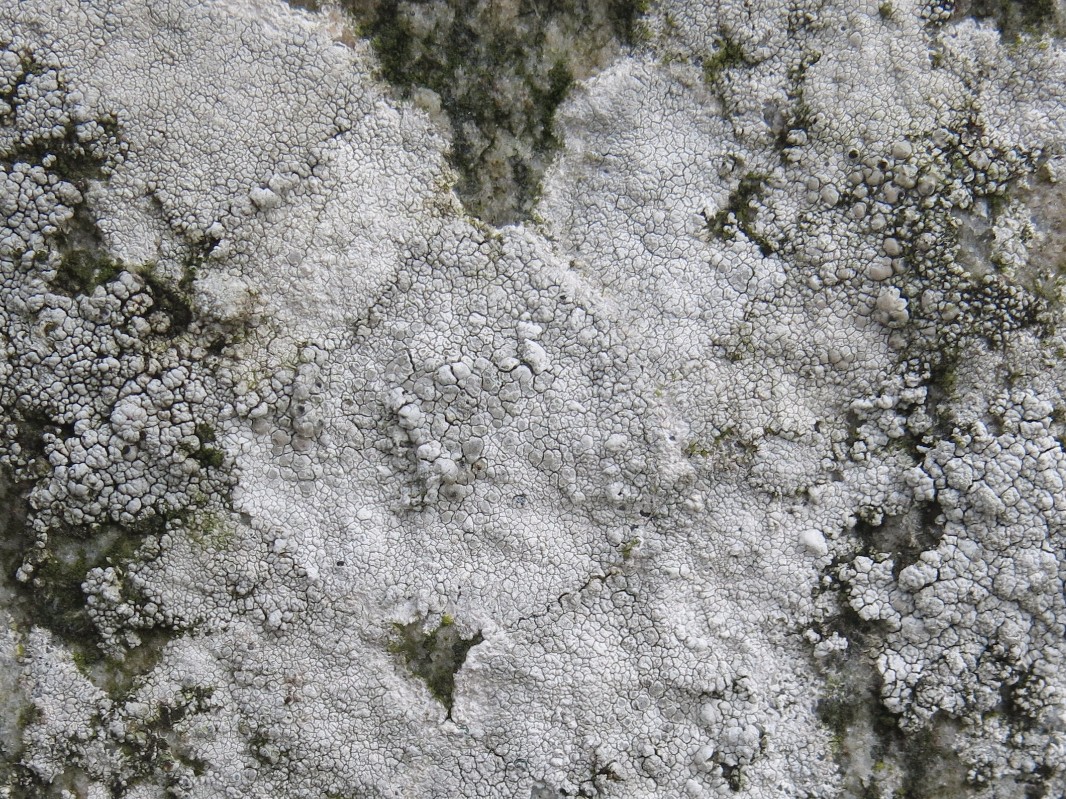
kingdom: Fungi
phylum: Ascomycota
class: Lecanoromycetes
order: Lecanorales
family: Lecanoraceae
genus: Glaucomaria
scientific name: Glaucomaria rupicola
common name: stengærde-kantskivelav
